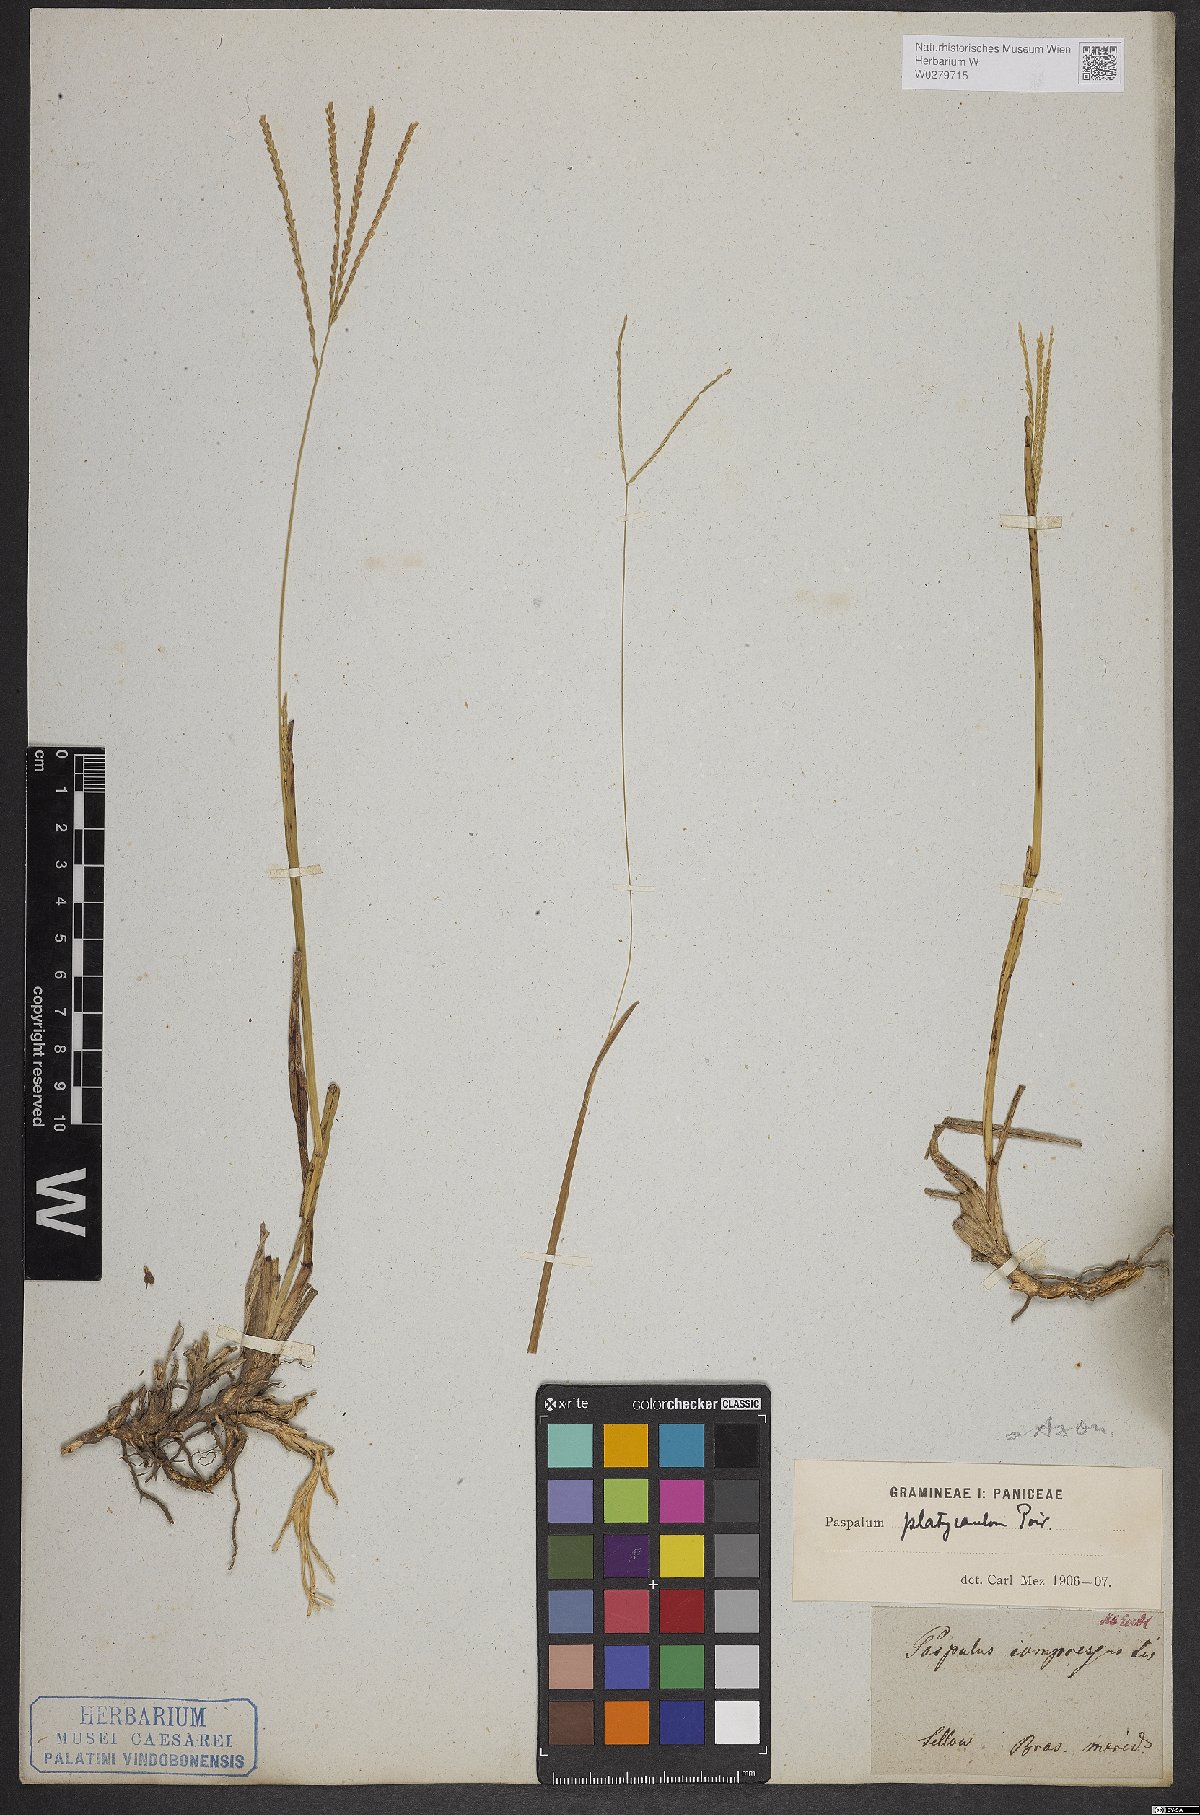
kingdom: Plantae
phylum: Tracheophyta
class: Liliopsida
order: Poales
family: Poaceae
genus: Axonopus
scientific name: Axonopus compressus
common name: American carpet grass
